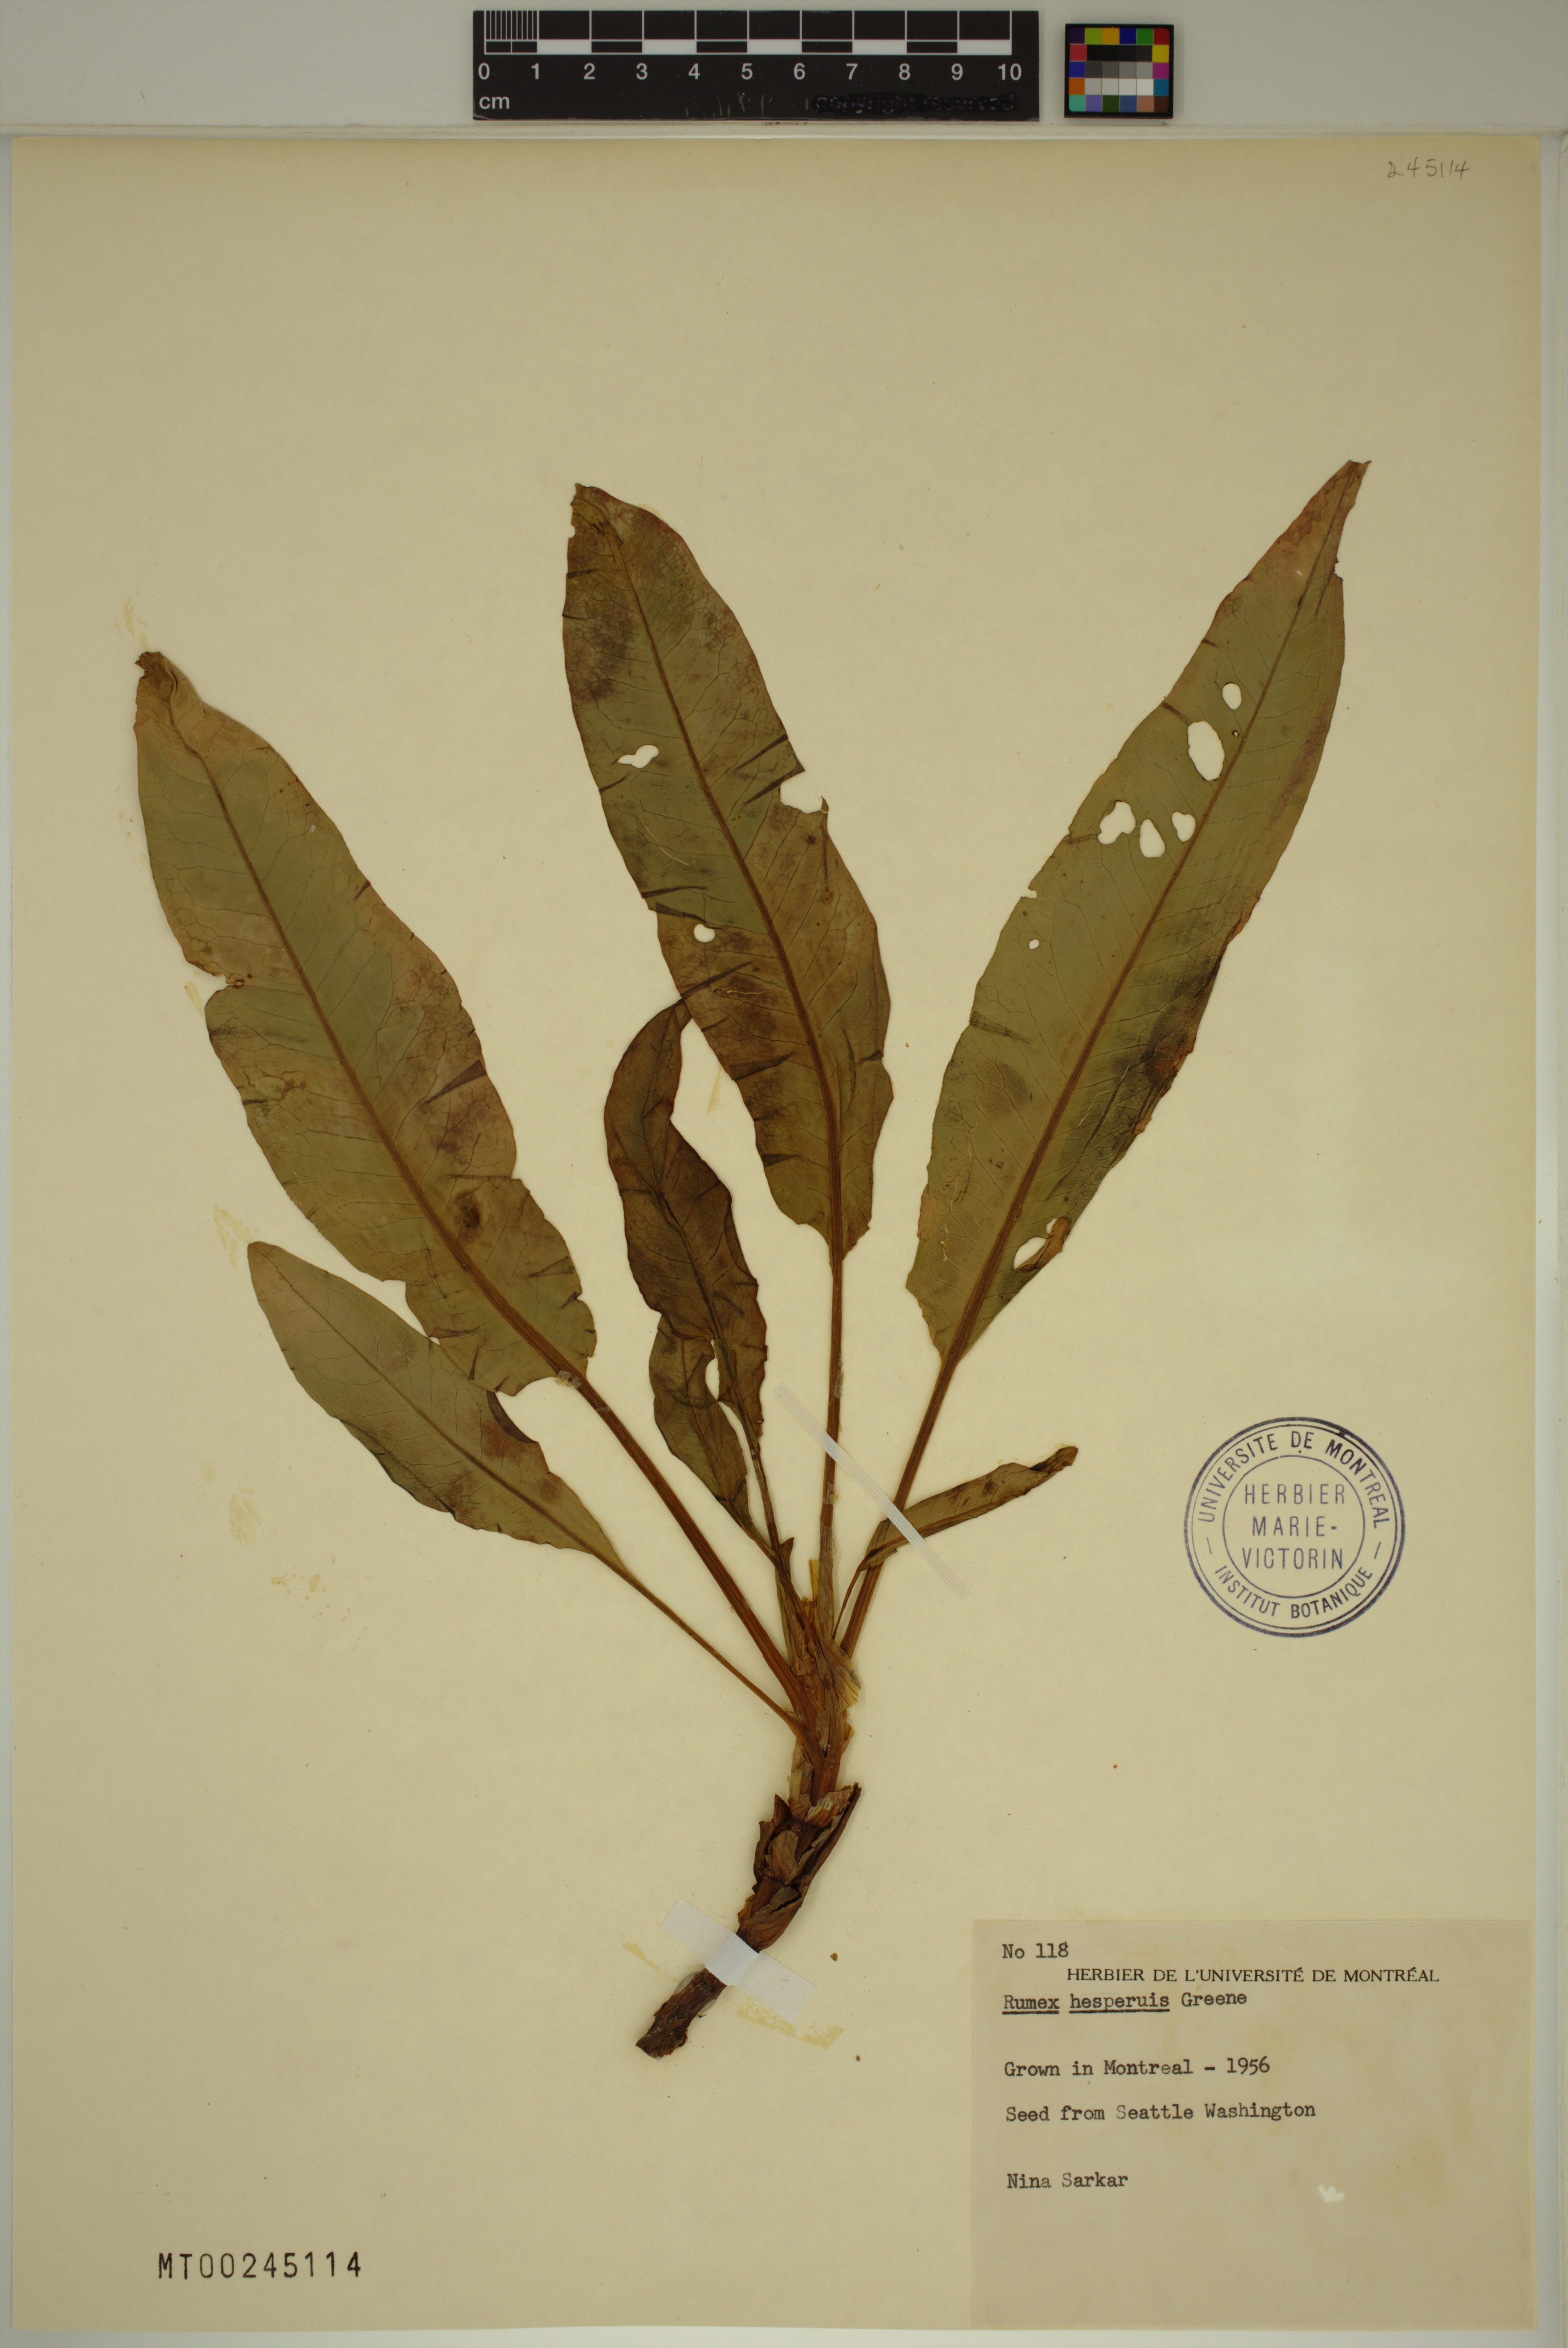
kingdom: Plantae
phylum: Tracheophyta
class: Magnoliopsida
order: Caryophyllales
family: Polygonaceae
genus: Rumex
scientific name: Rumex salicifolius
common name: Willow-leaved dock
